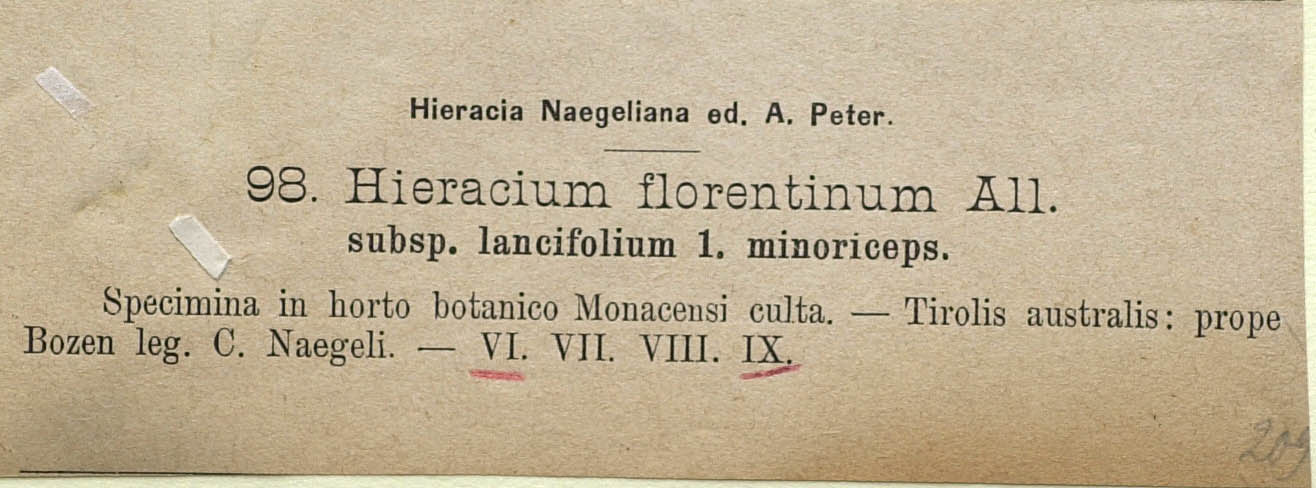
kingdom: Plantae
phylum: Tracheophyta
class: Magnoliopsida
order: Asterales
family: Asteraceae
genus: Pilosella
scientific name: Pilosella piloselloides
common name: Glaucous king-devil
